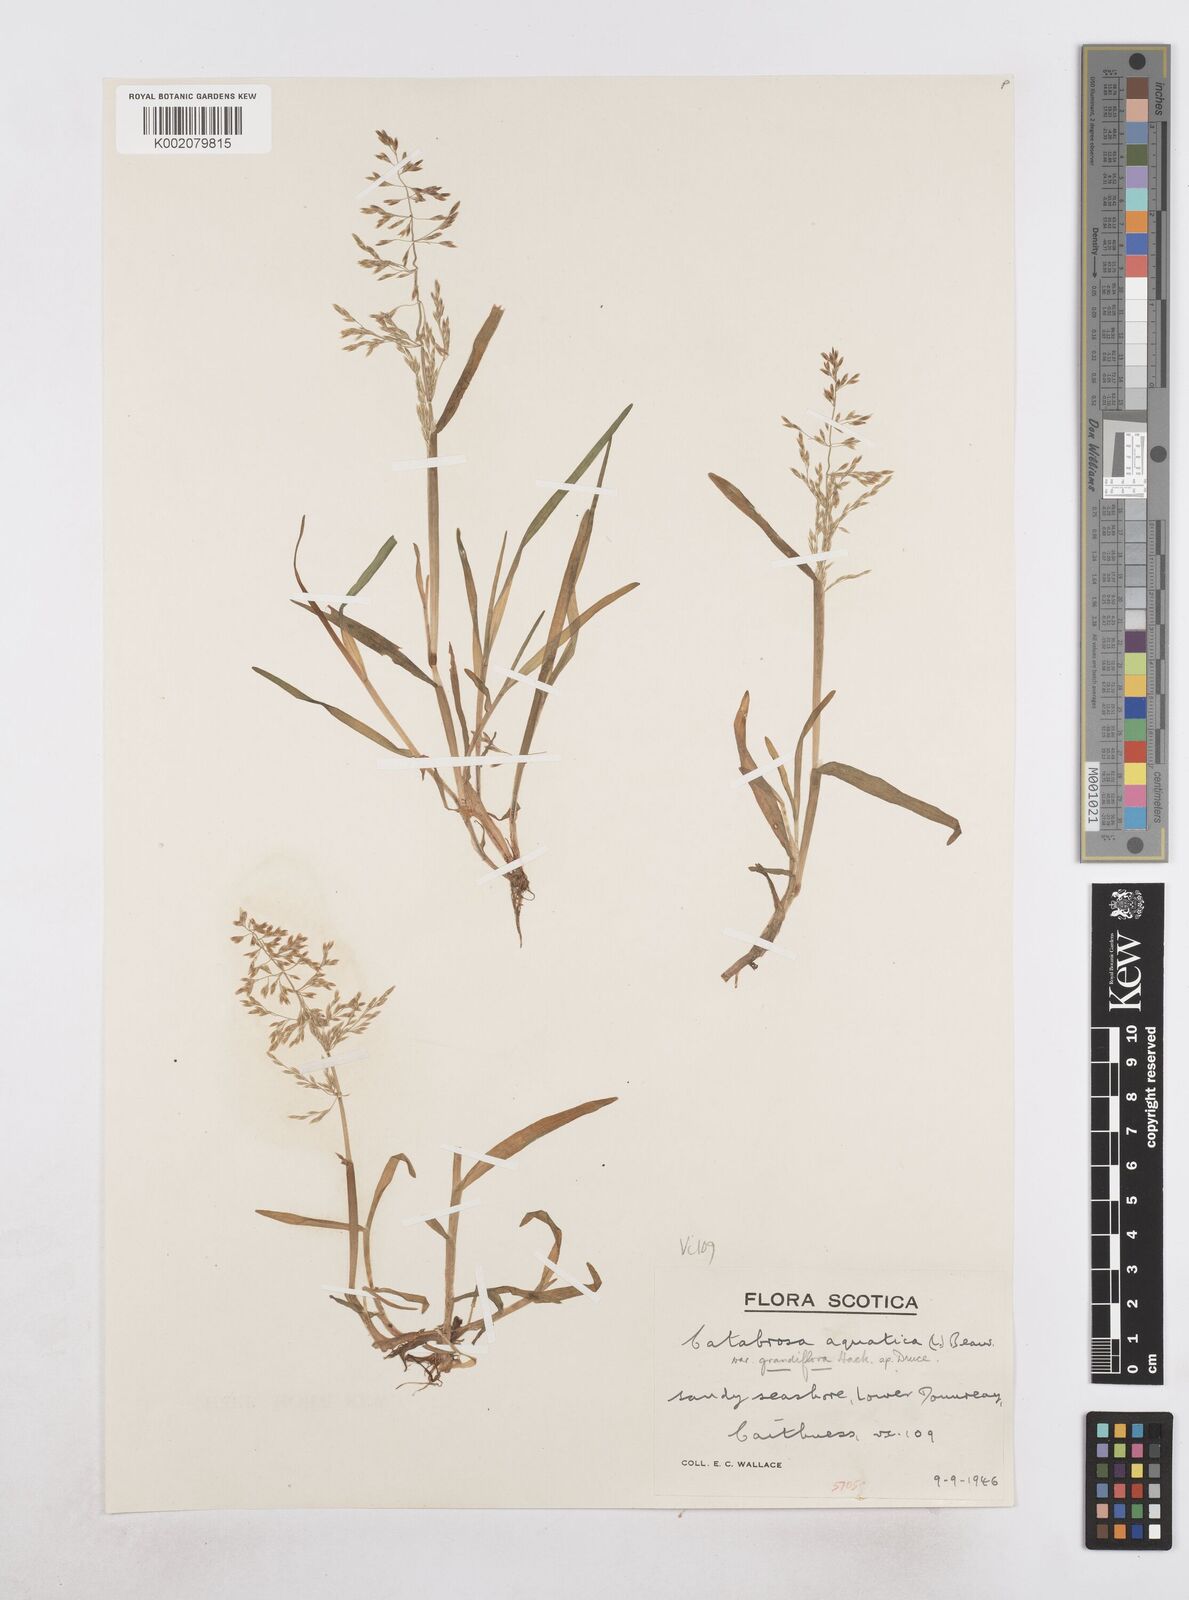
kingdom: Plantae
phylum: Tracheophyta
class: Liliopsida
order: Poales
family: Poaceae
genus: Catabrosa
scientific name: Catabrosa aquatica
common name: Whorl-grass
